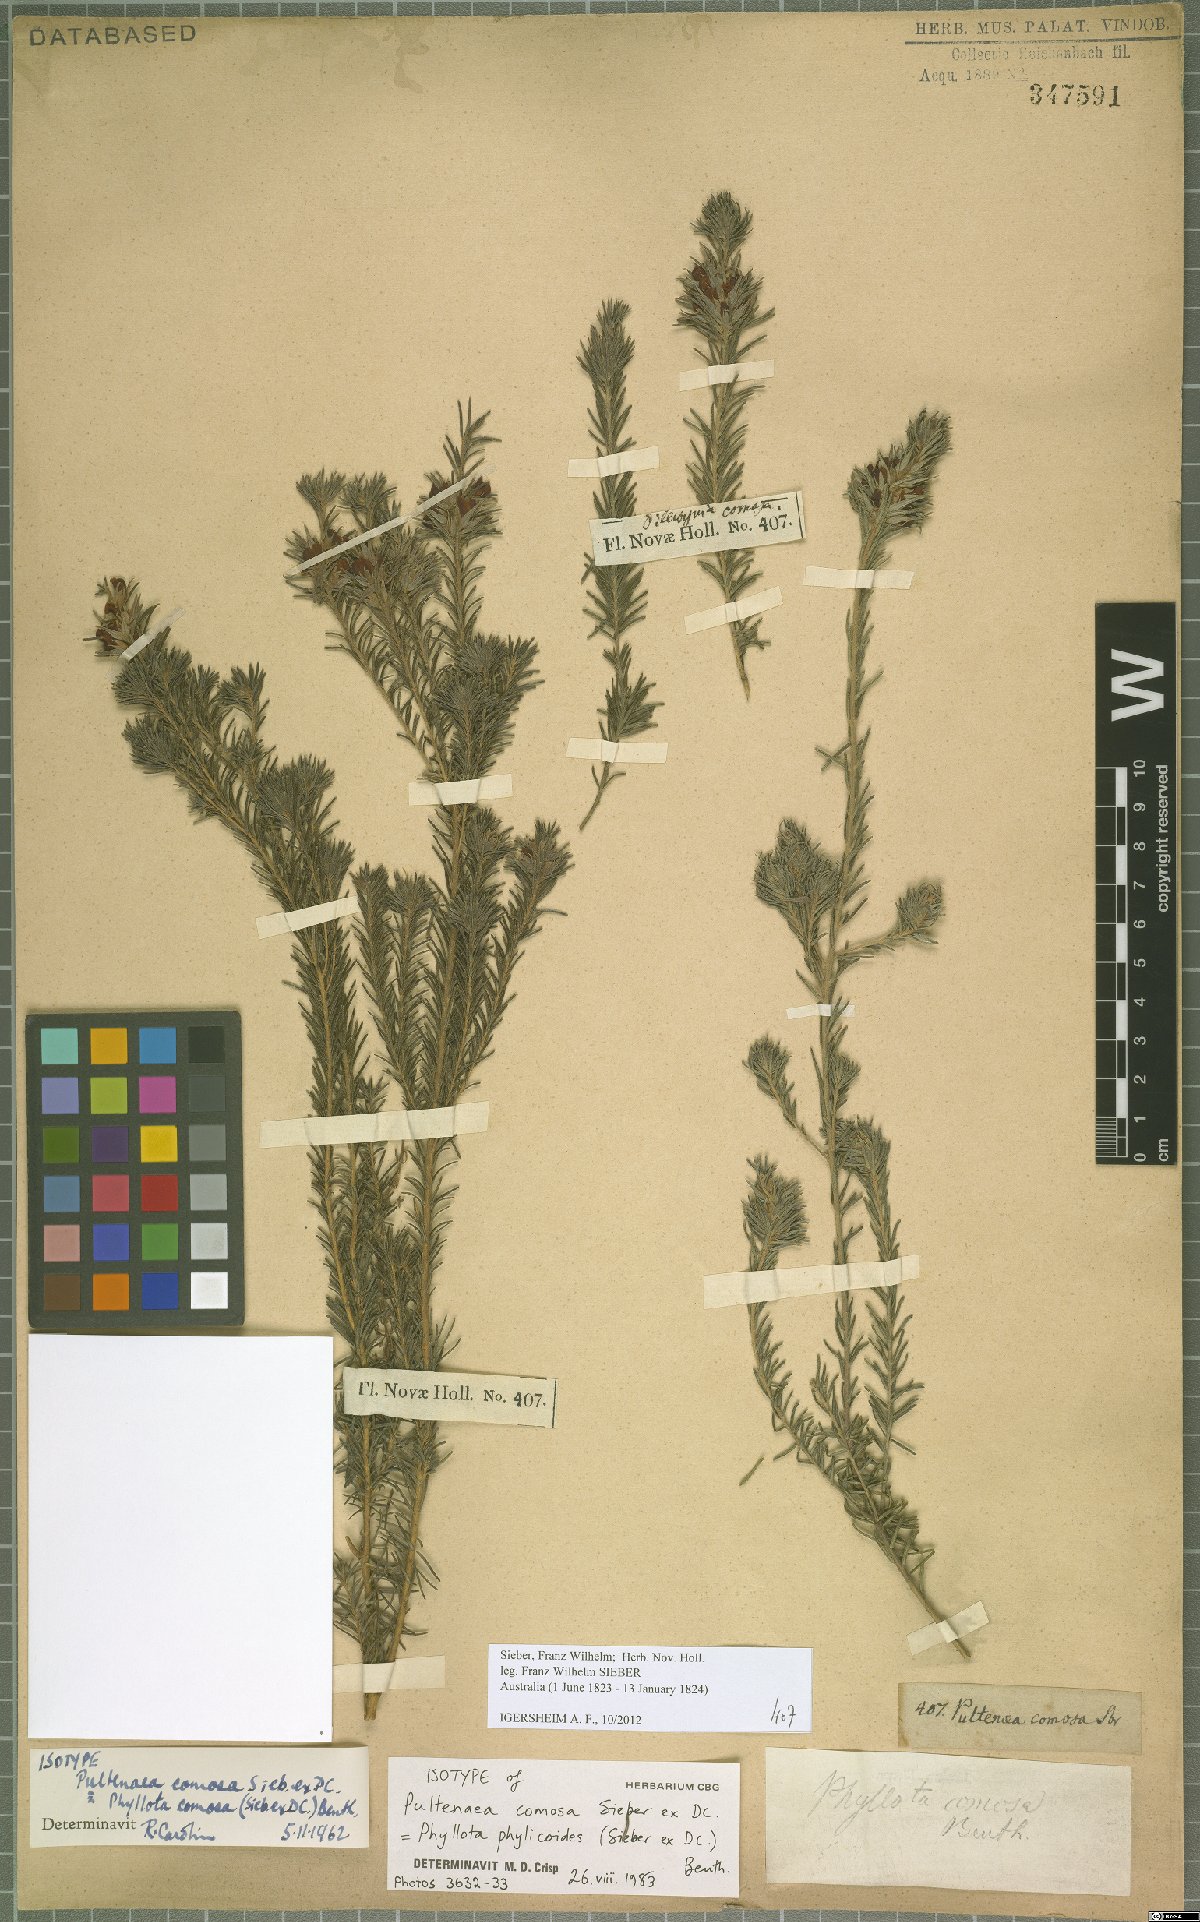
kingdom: Plantae
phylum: Tracheophyta
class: Magnoliopsida
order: Fabales
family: Fabaceae
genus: Phyllota
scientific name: Phyllota phylicoides
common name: Heath phyllota
